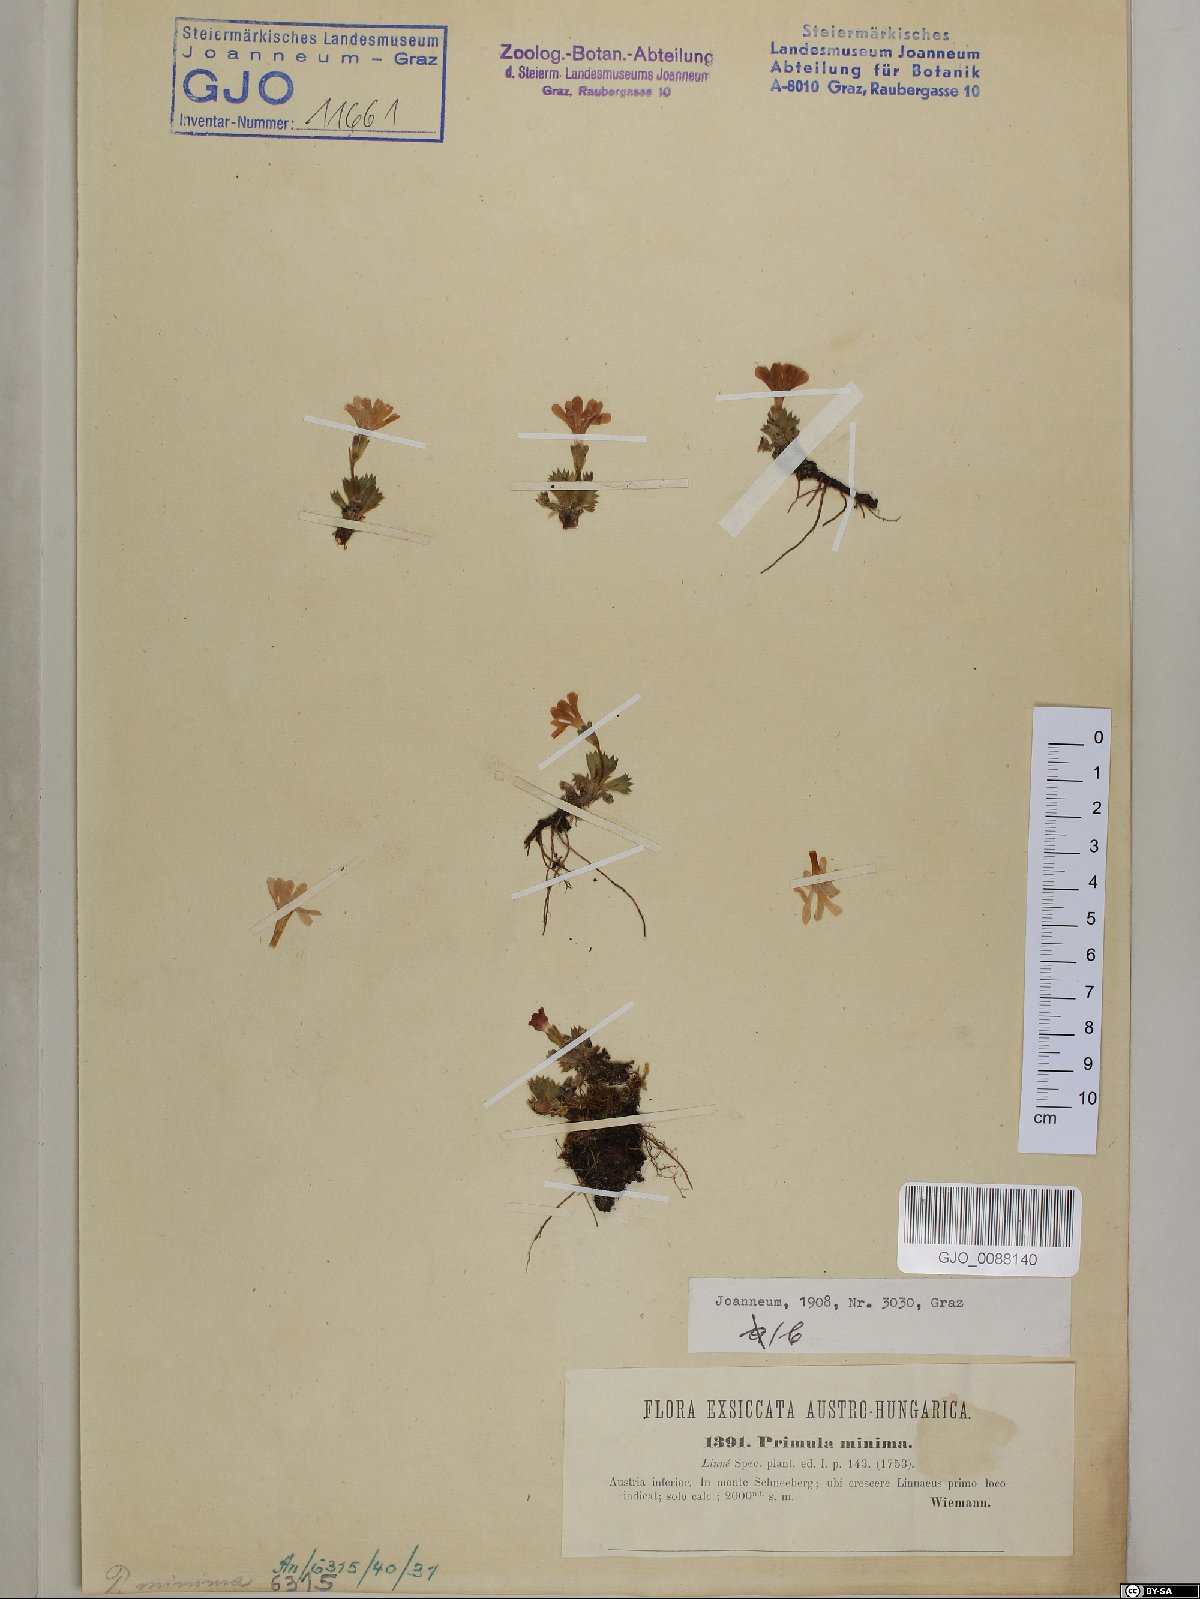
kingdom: Plantae
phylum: Tracheophyta
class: Magnoliopsida
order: Ericales
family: Primulaceae
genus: Primula
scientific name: Primula minima
